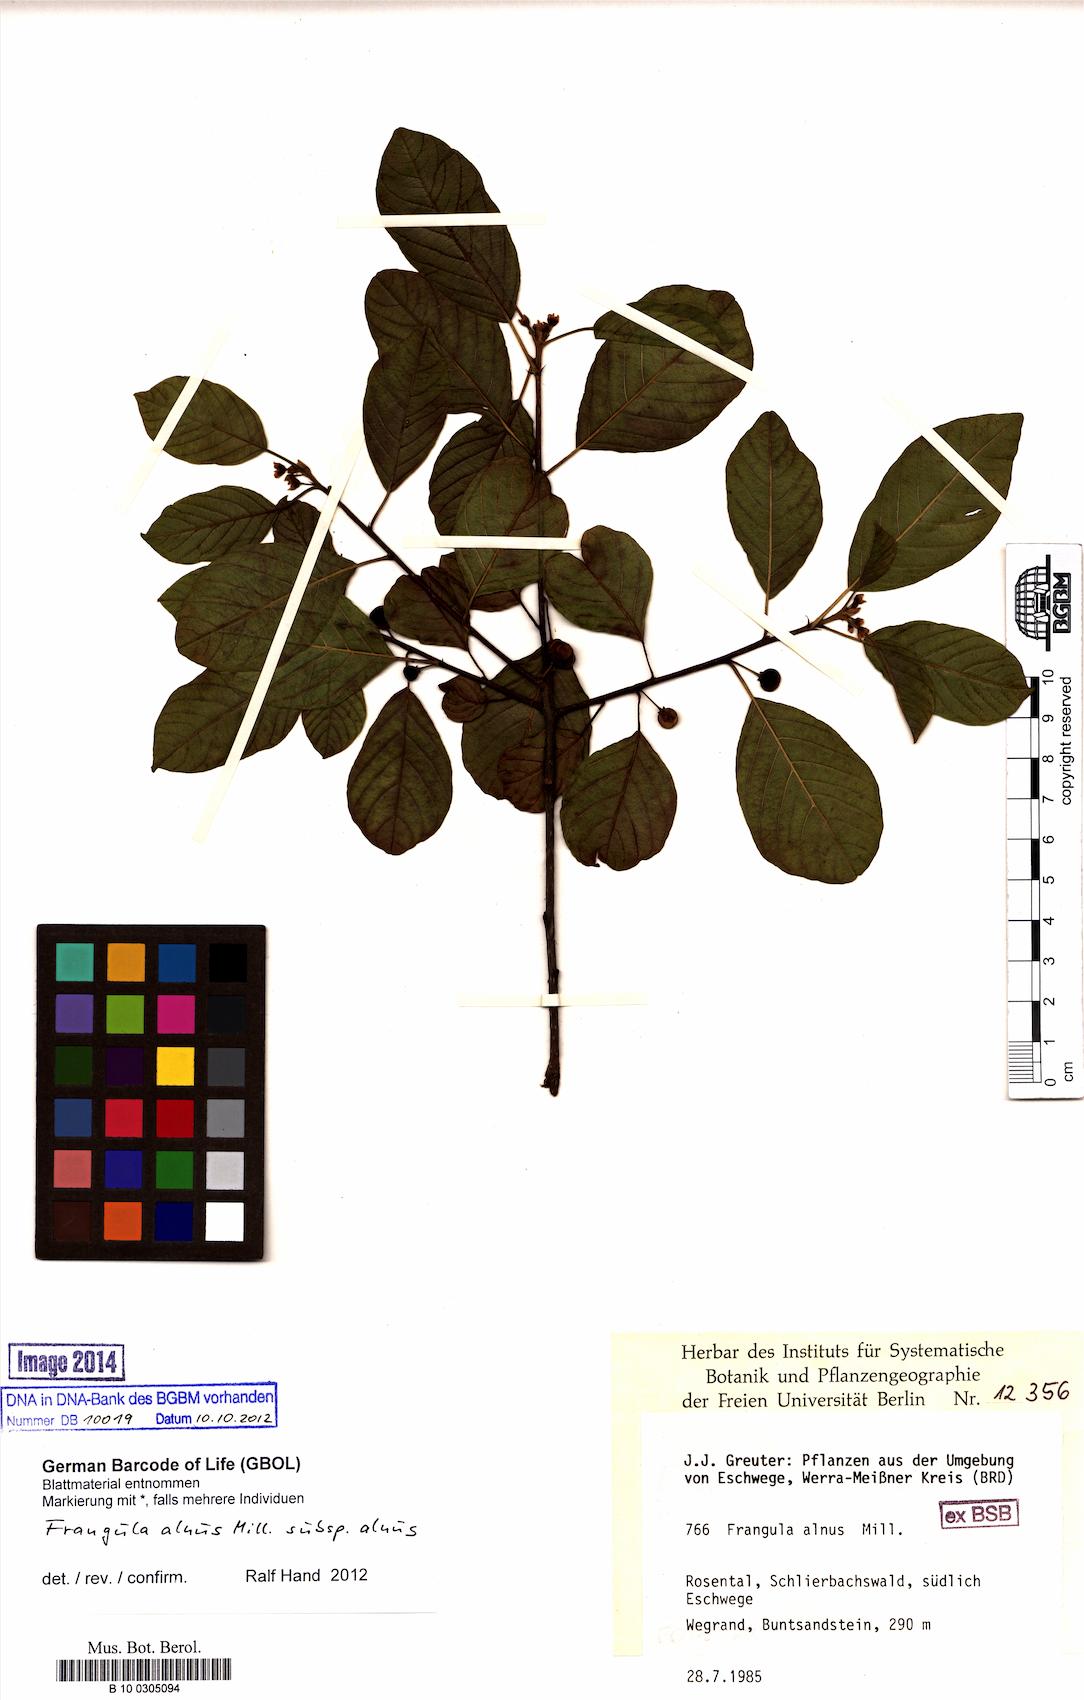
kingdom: Plantae
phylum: Tracheophyta
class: Magnoliopsida
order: Rosales
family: Rhamnaceae
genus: Frangula
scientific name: Frangula alnus
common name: Alder buckthorn
